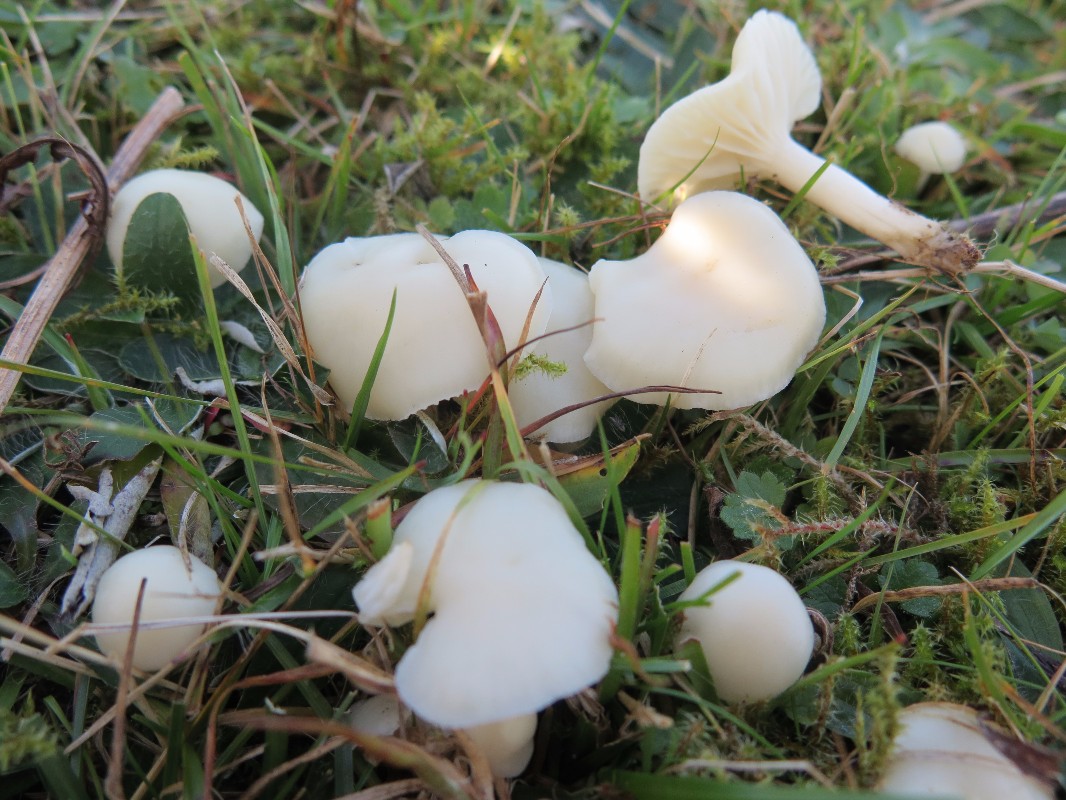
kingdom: Fungi
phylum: Basidiomycota
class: Agaricomycetes
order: Agaricales
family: Hygrophoraceae
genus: Cuphophyllus
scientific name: Cuphophyllus virgineus
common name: snehvid vokshat
